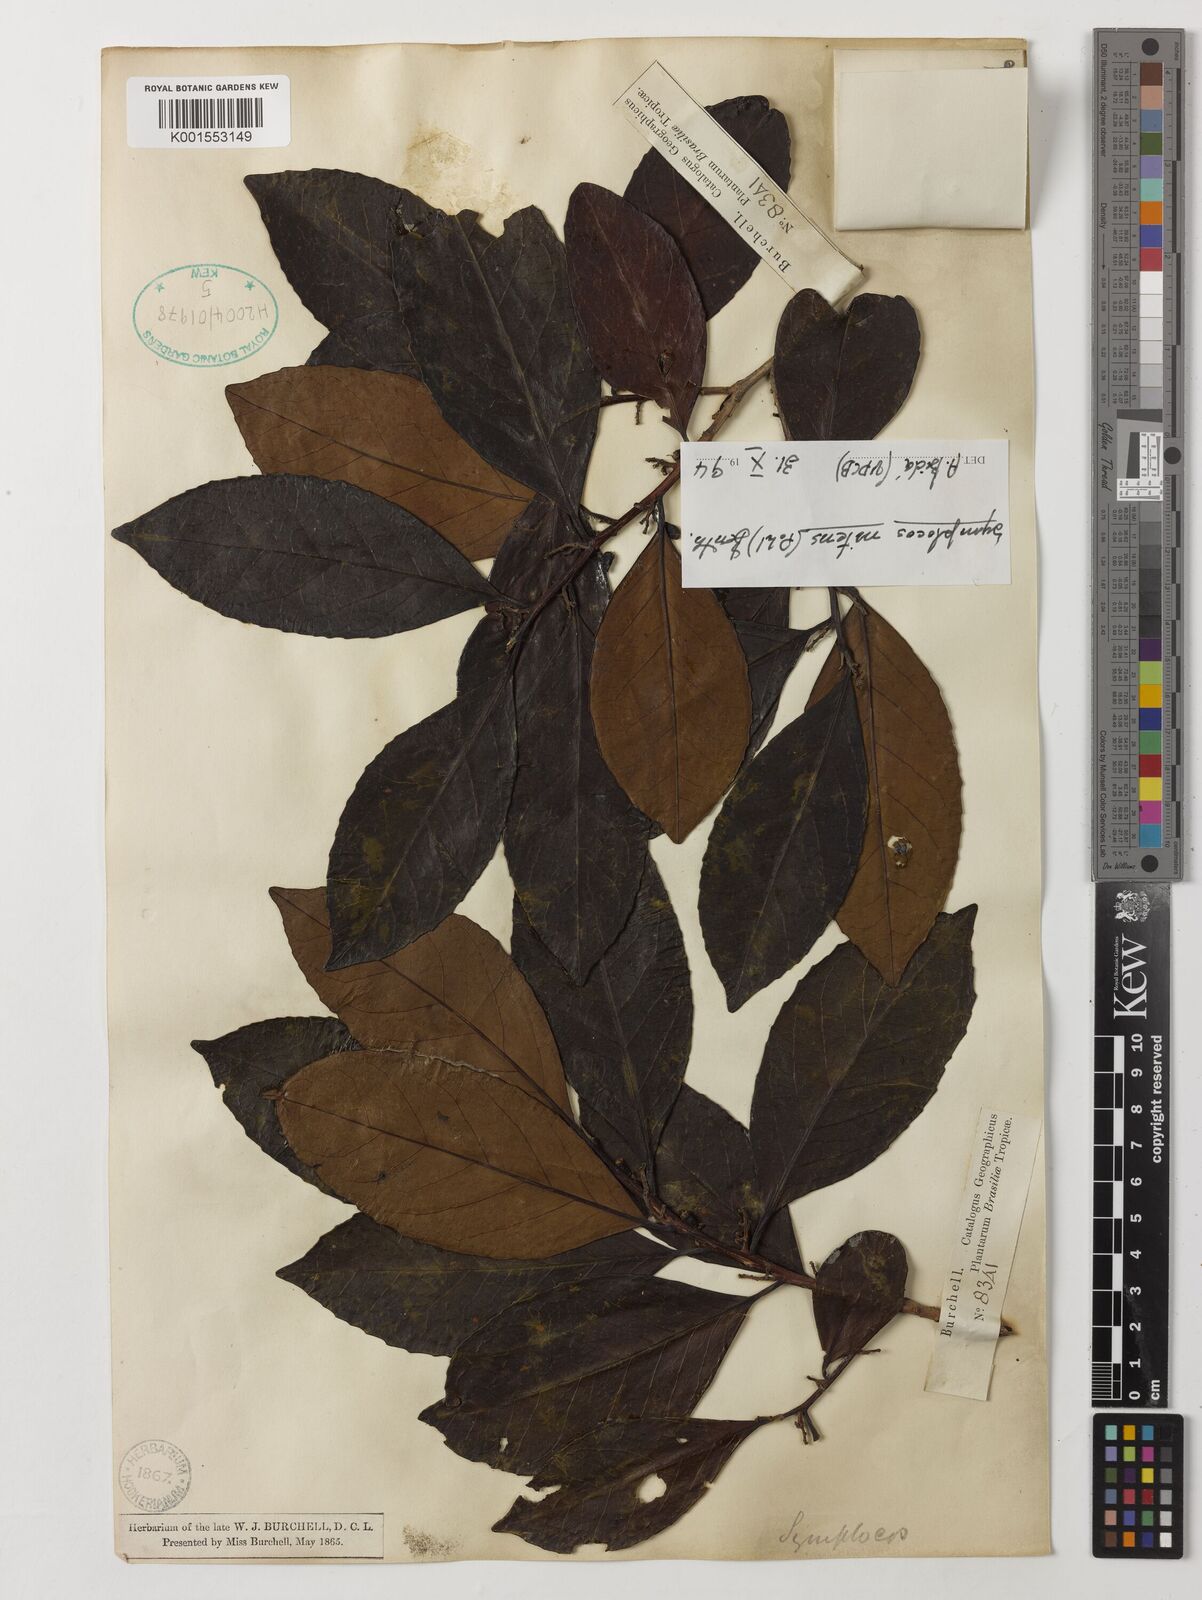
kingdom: Plantae
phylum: Tracheophyta
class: Magnoliopsida
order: Ericales
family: Symplocaceae
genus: Symplocos
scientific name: Symplocos nitens
